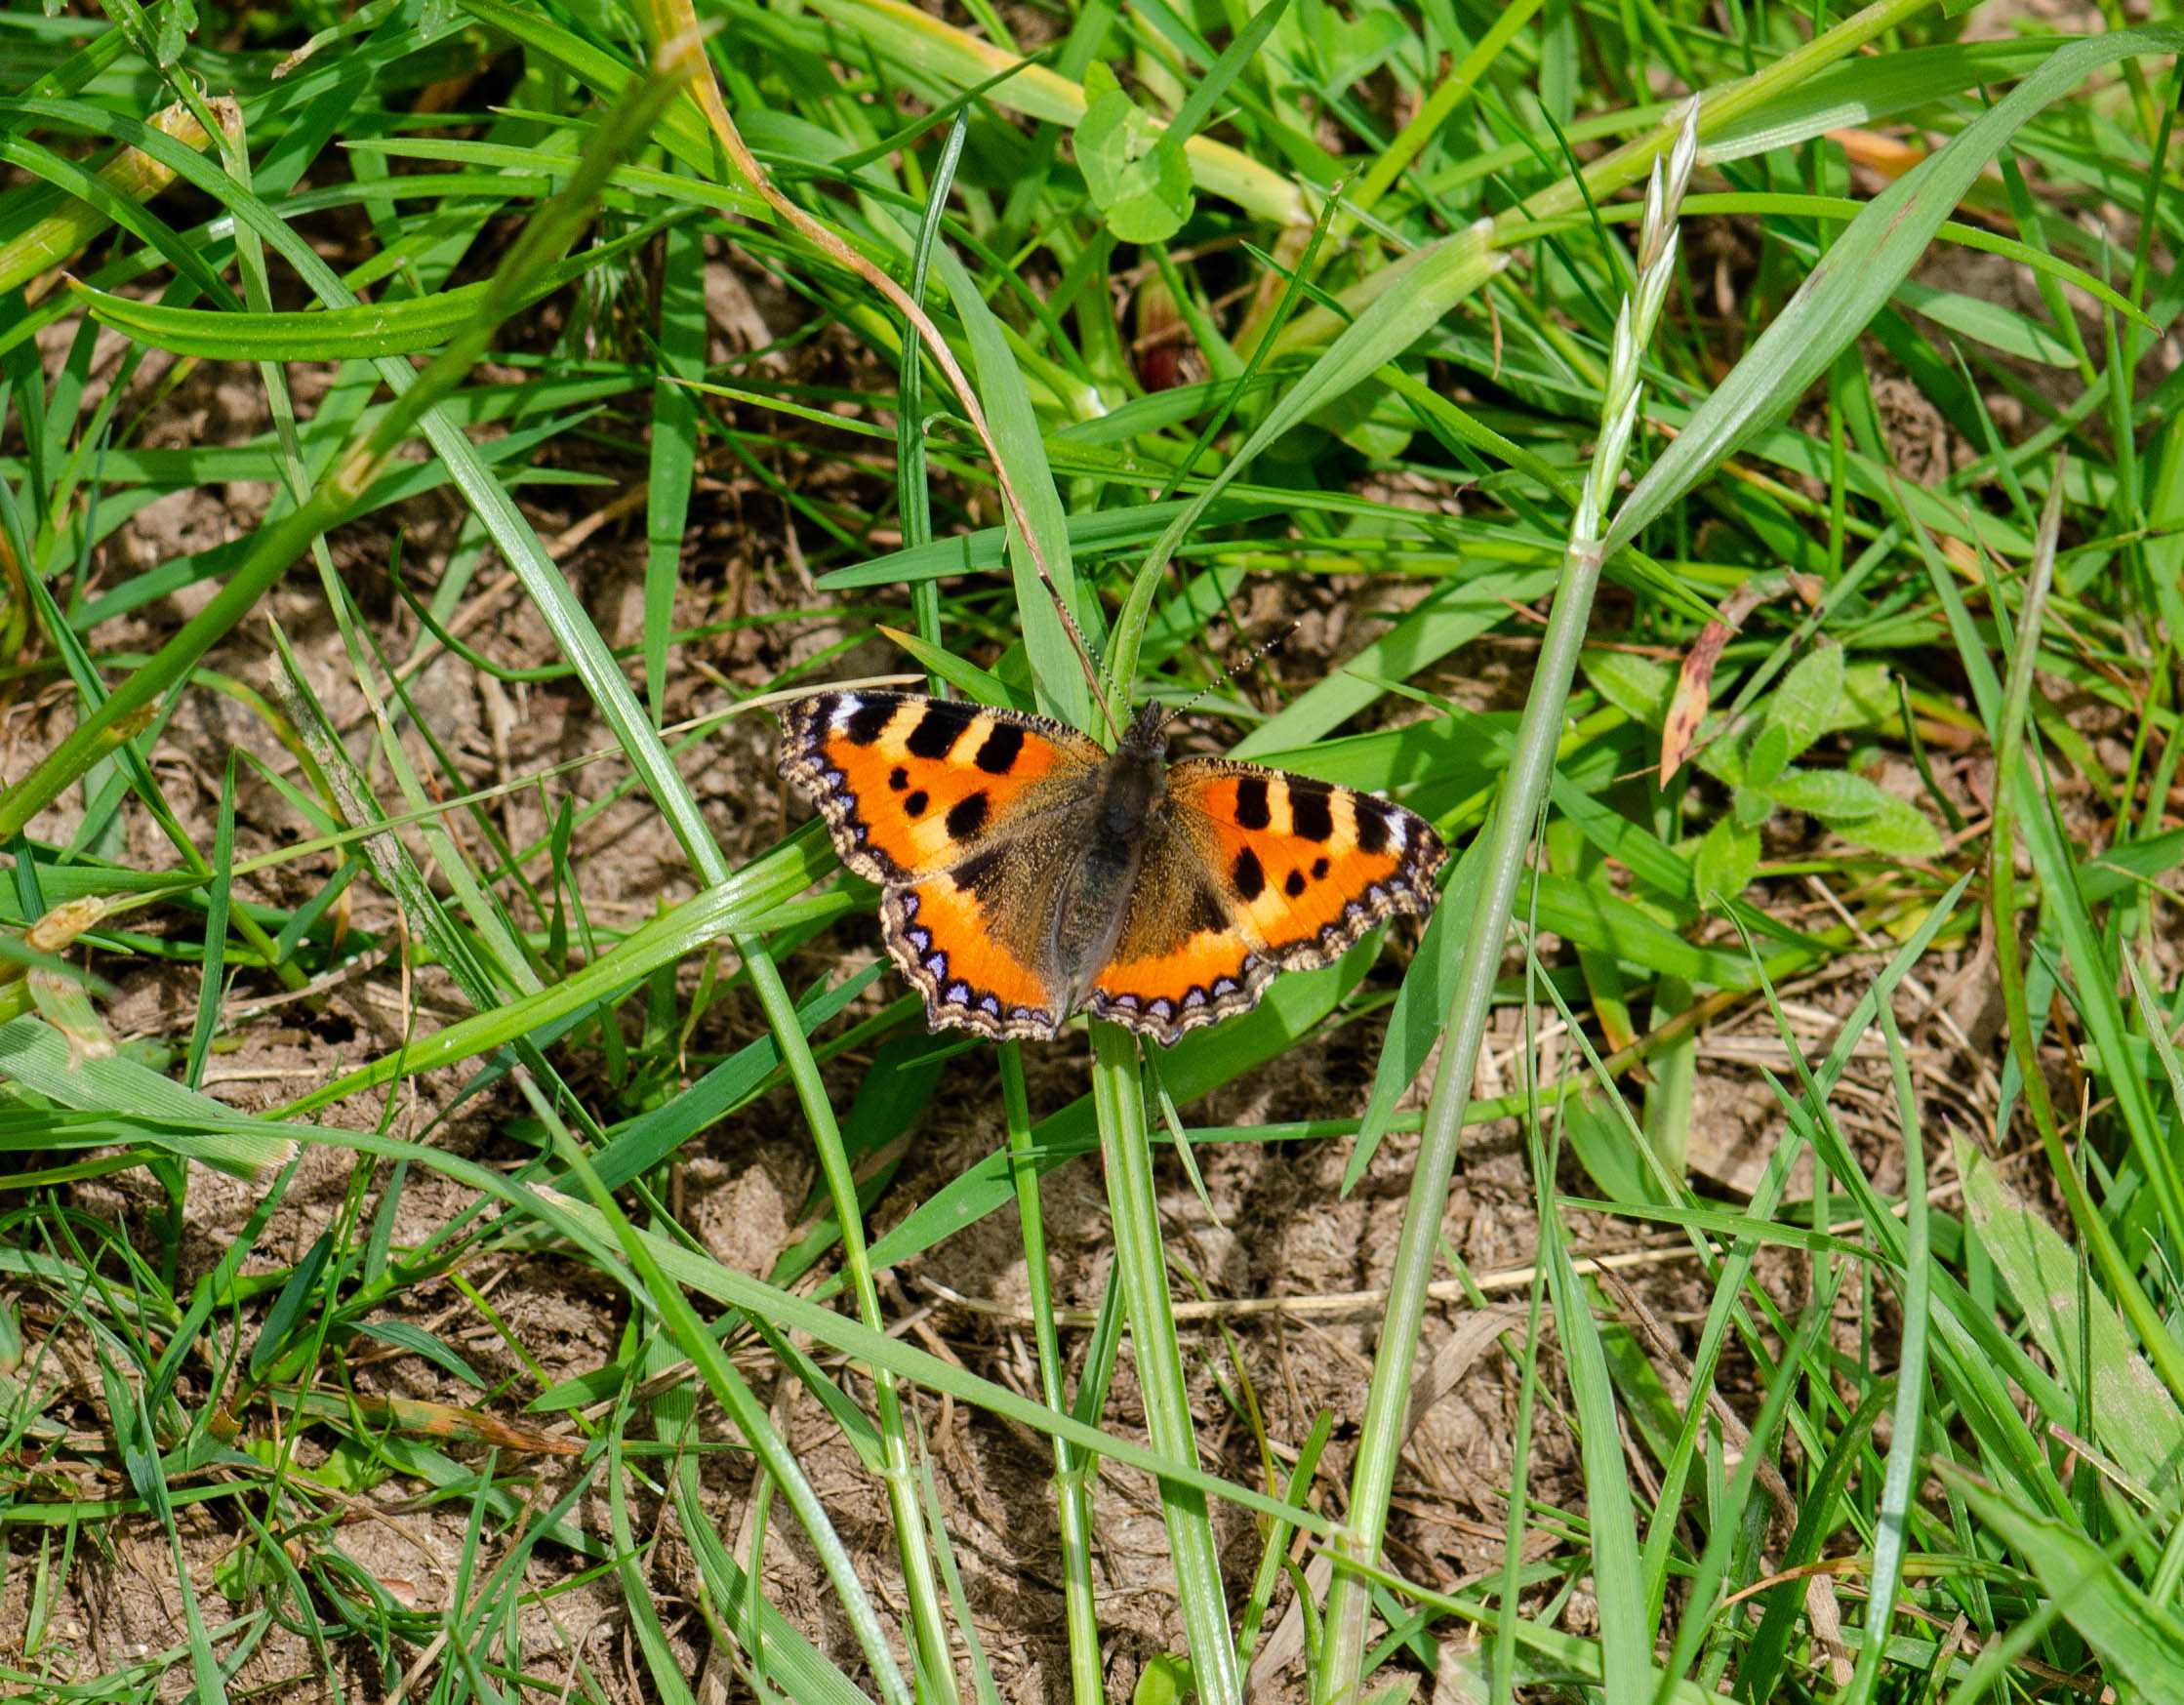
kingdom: Animalia
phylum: Arthropoda
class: Insecta
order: Lepidoptera
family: Nymphalidae
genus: Aglais
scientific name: Aglais urticae
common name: Nældens takvinge
